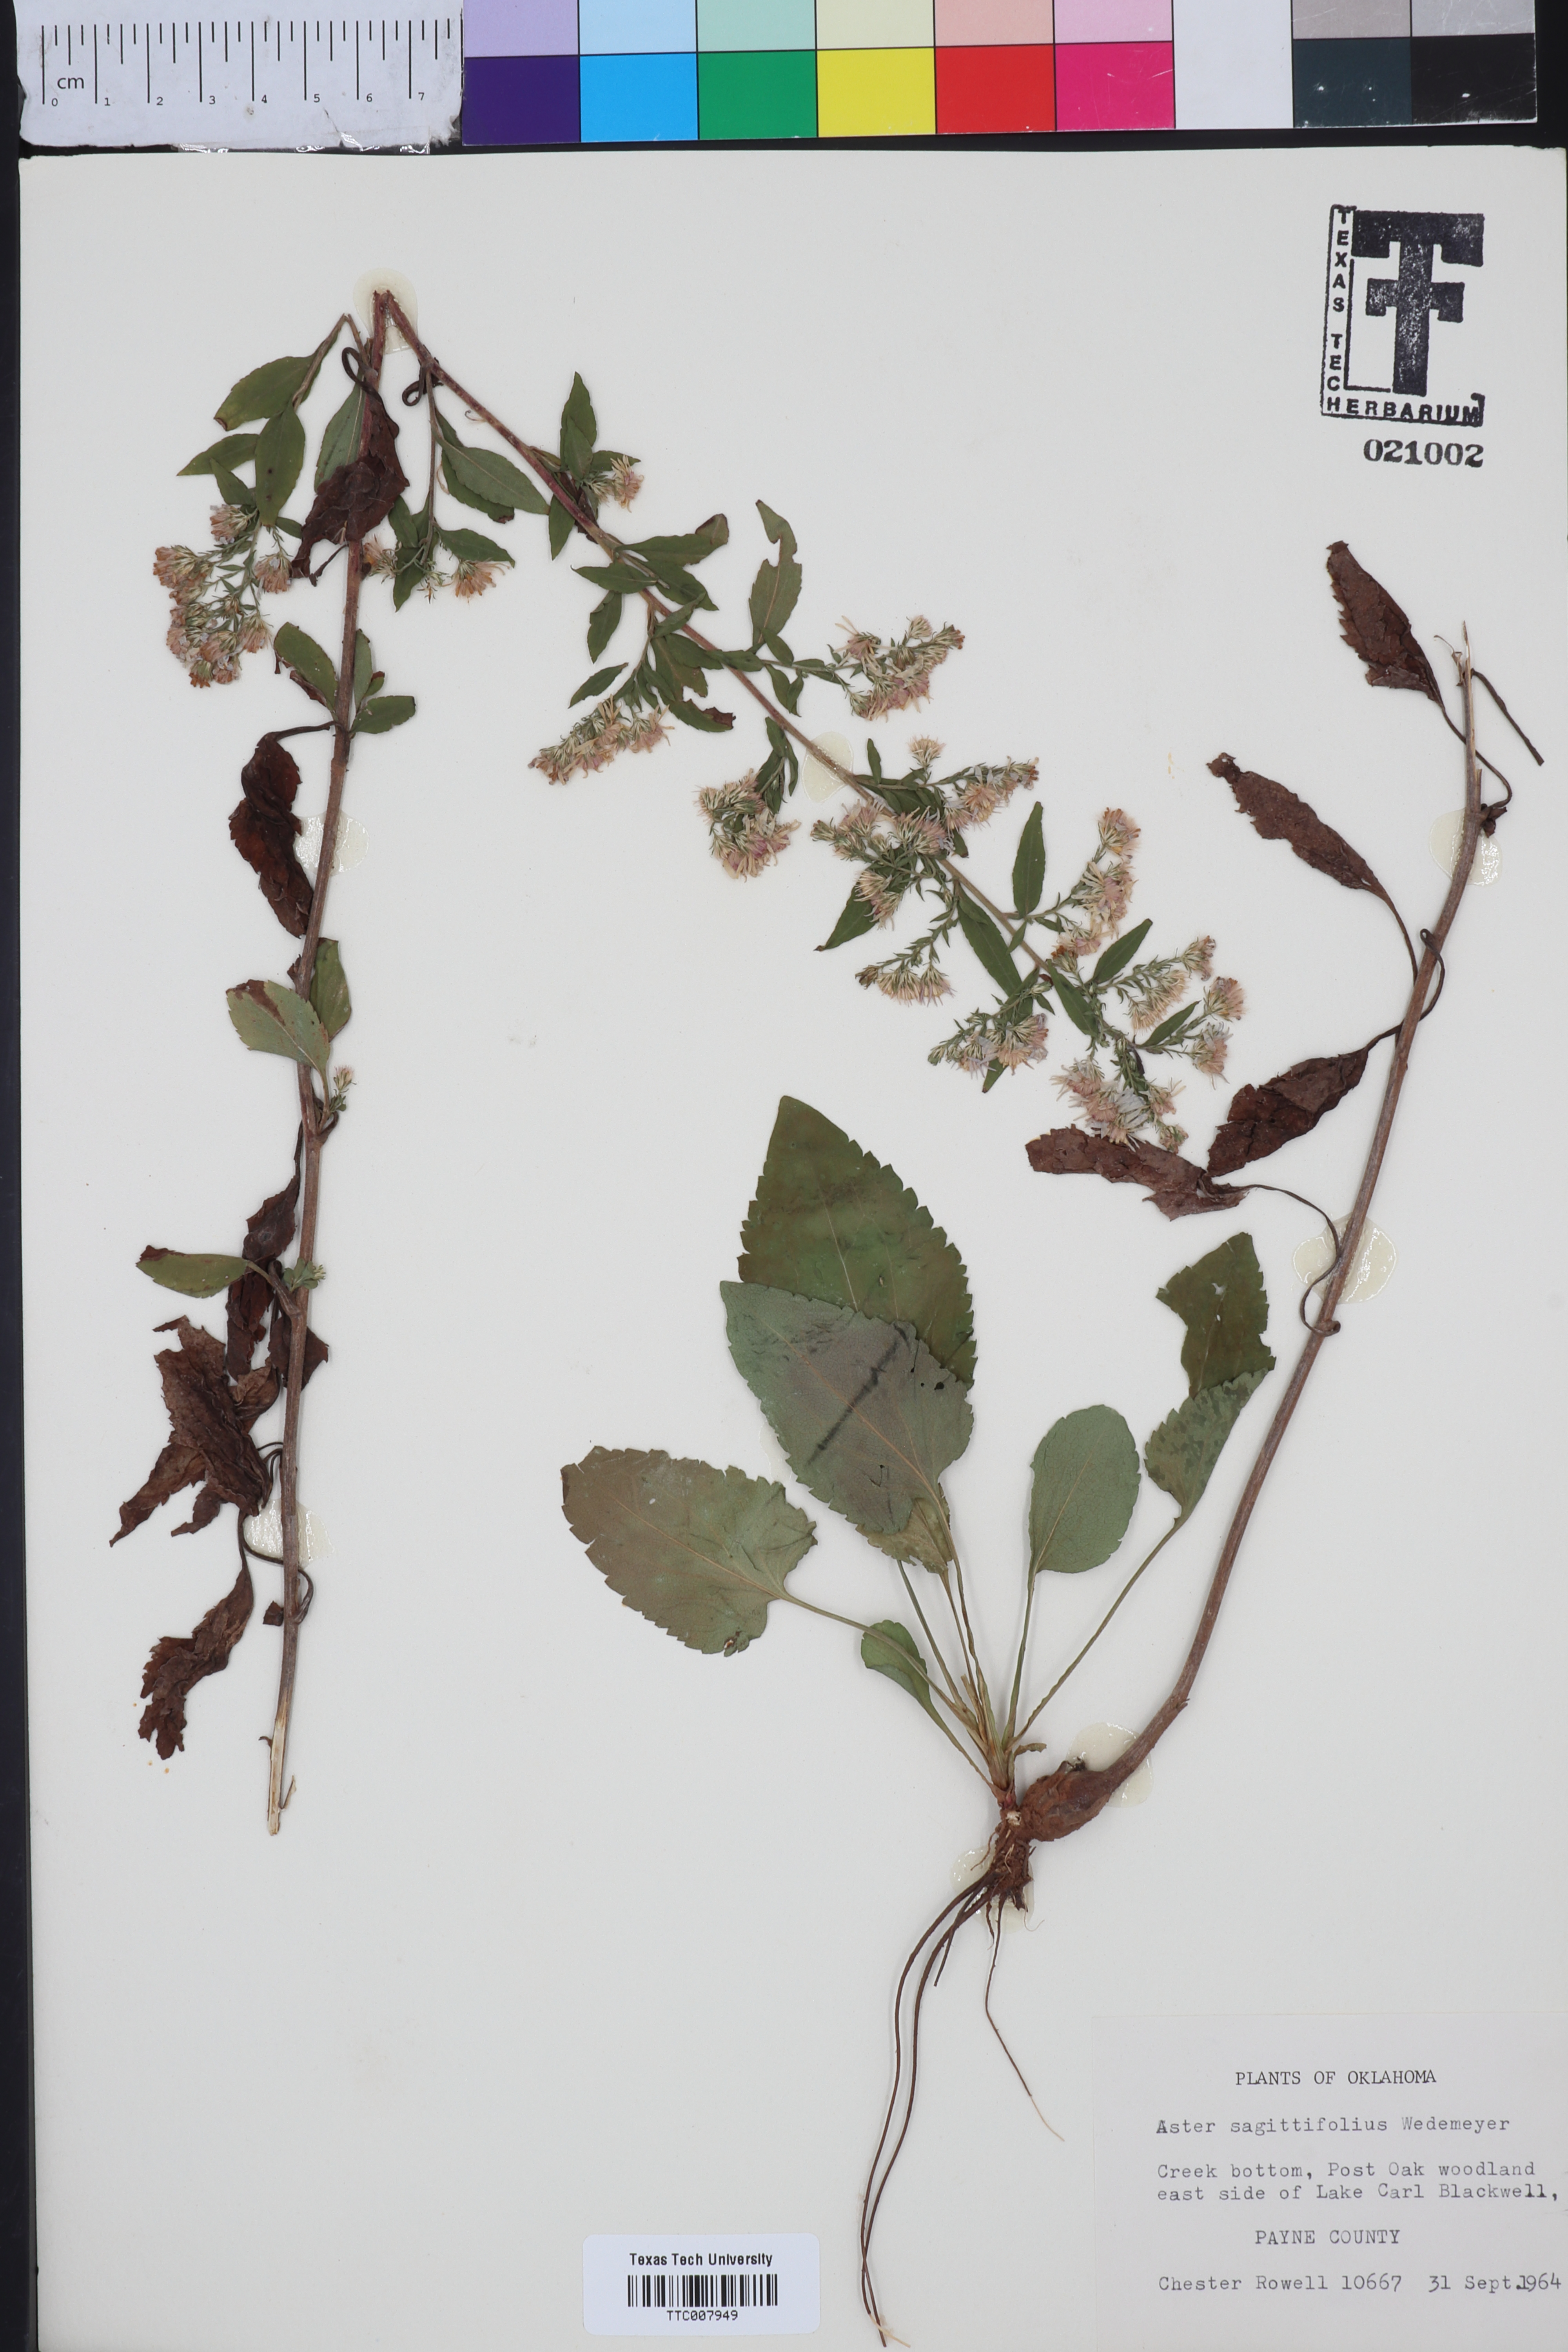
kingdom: Plantae
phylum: Tracheophyta
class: Magnoliopsida
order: Asterales
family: Asteraceae
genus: Symphyotrichum
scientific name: Symphyotrichum undulatum
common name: Clasping heart-leaf aster
